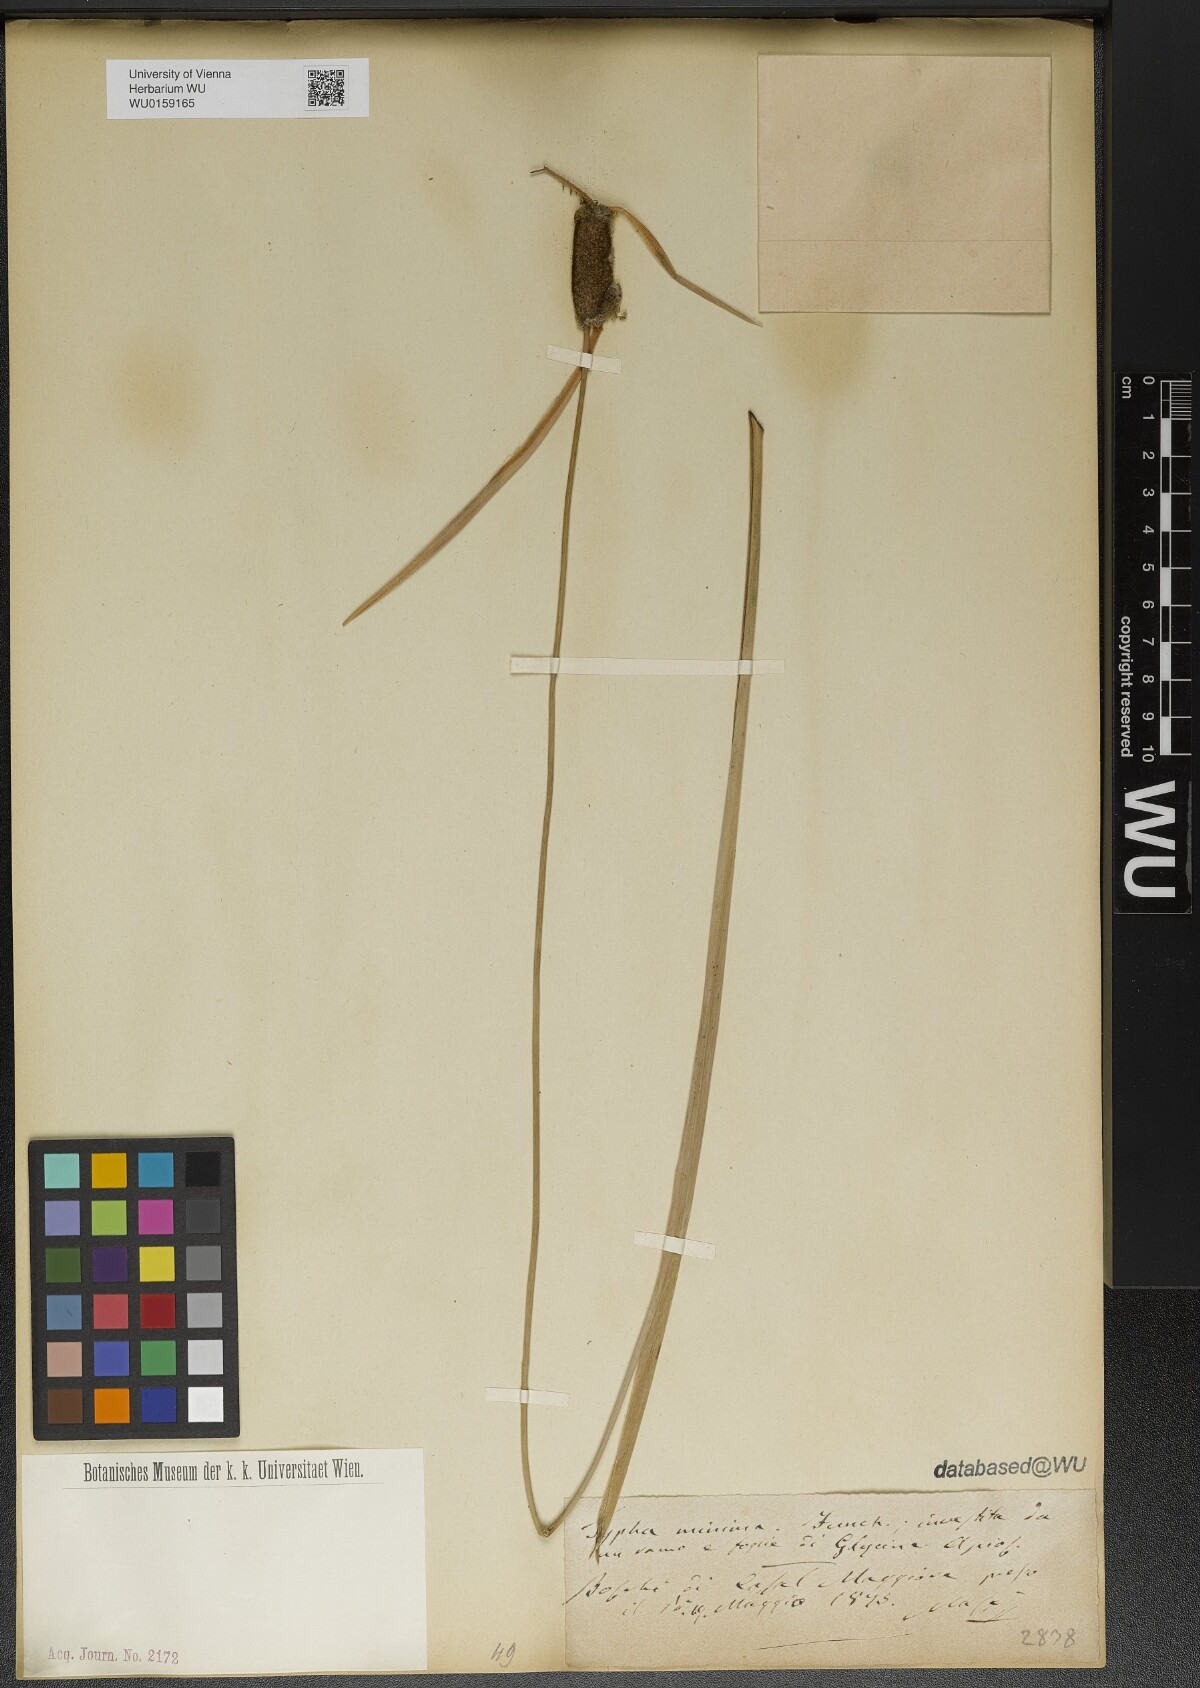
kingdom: Plantae
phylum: Tracheophyta
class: Liliopsida
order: Poales
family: Typhaceae
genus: Typha
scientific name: Typha minima
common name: Dwarf bulrush
